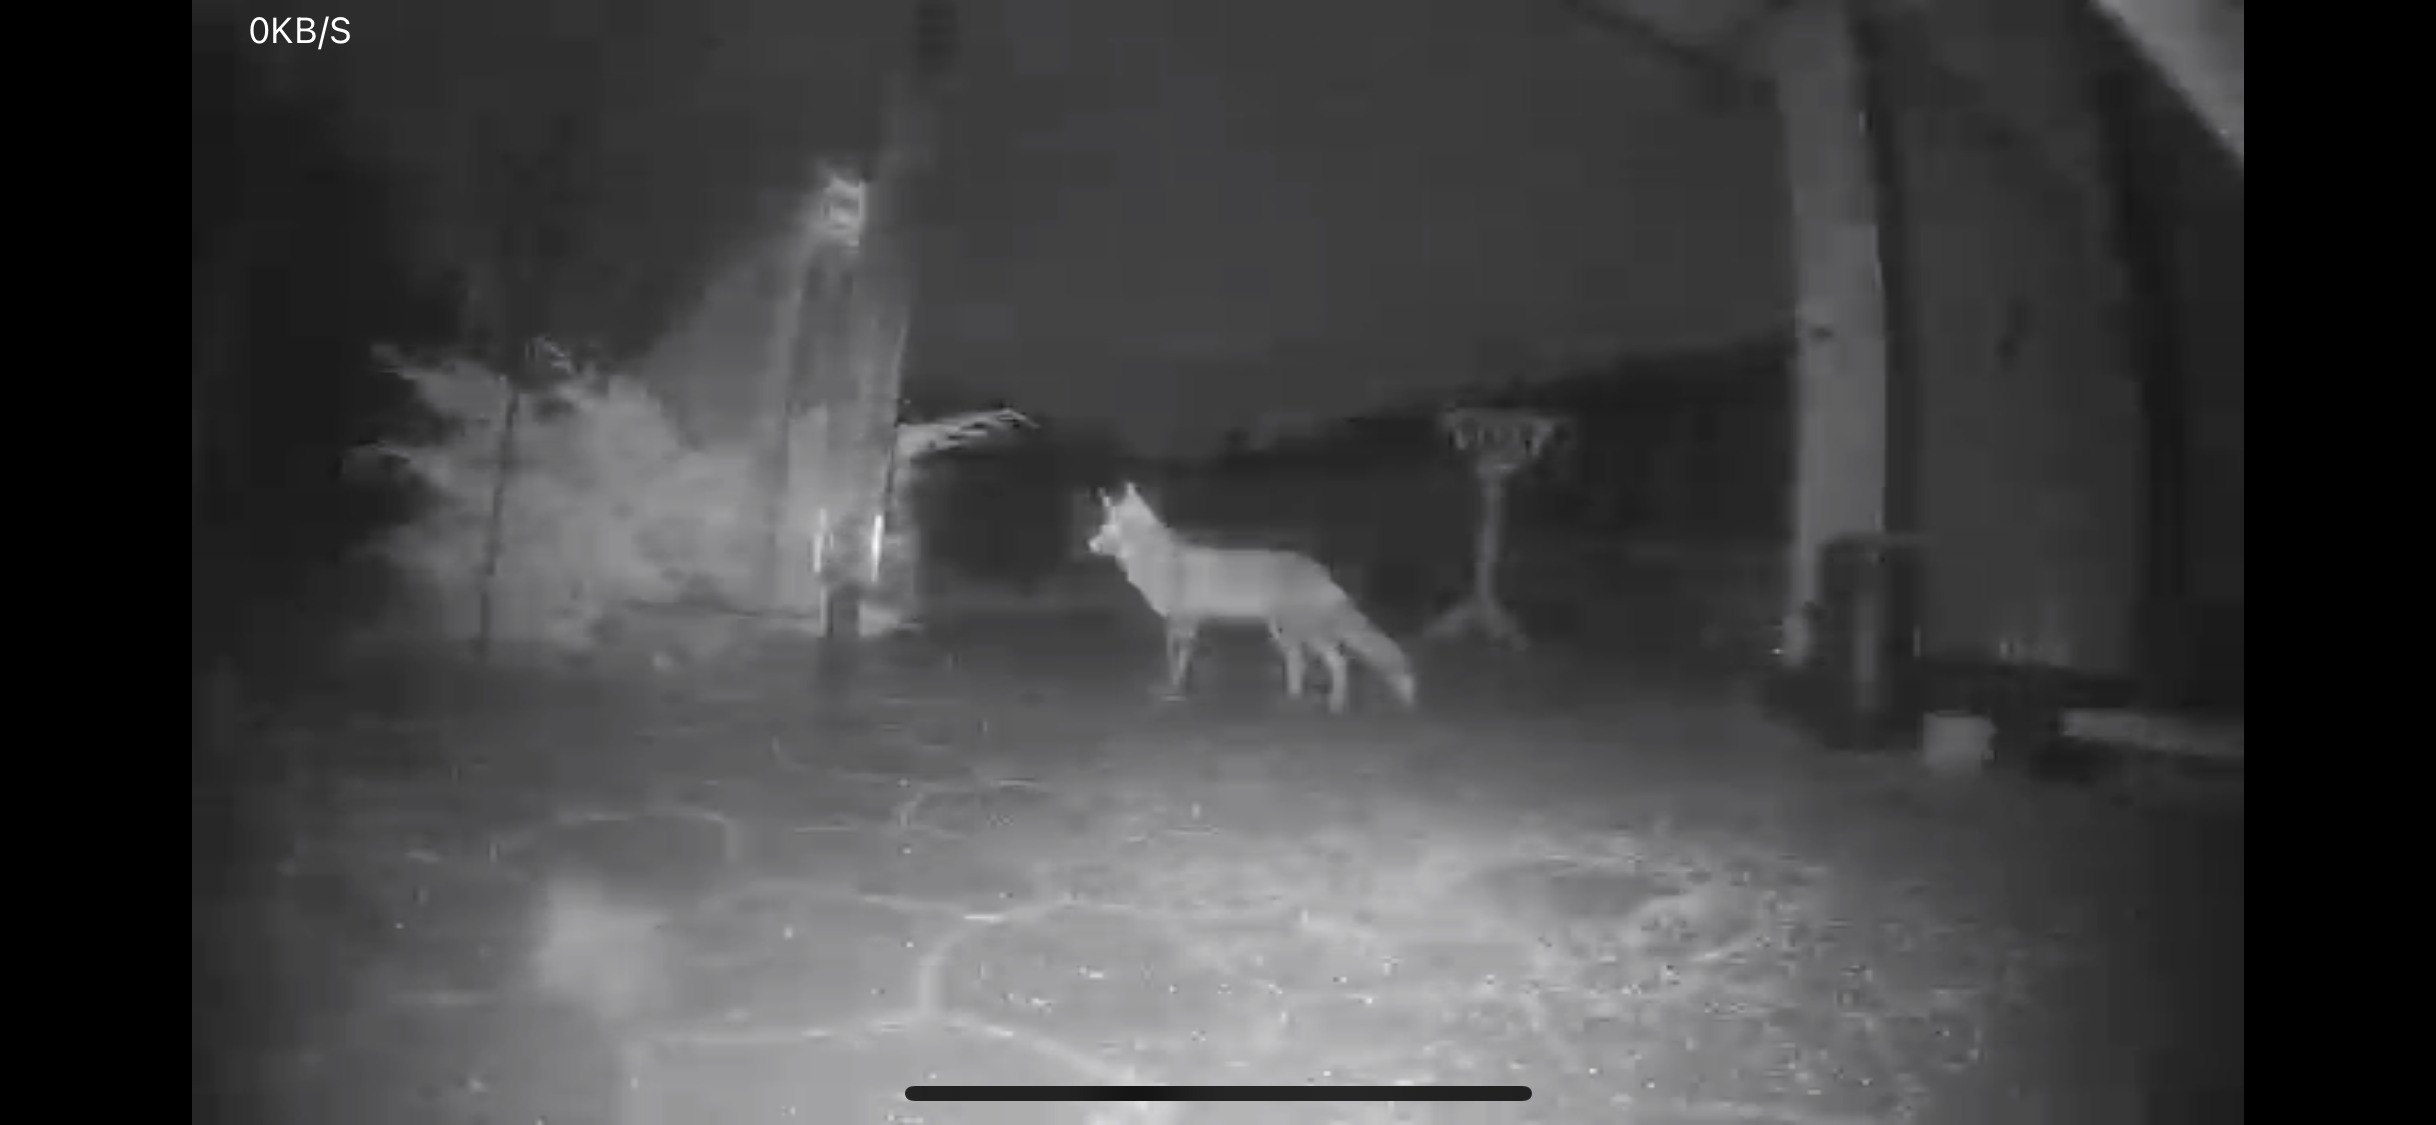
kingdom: Animalia
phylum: Chordata
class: Mammalia
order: Carnivora
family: Canidae
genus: Vulpes
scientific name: Vulpes vulpes
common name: Ræv
